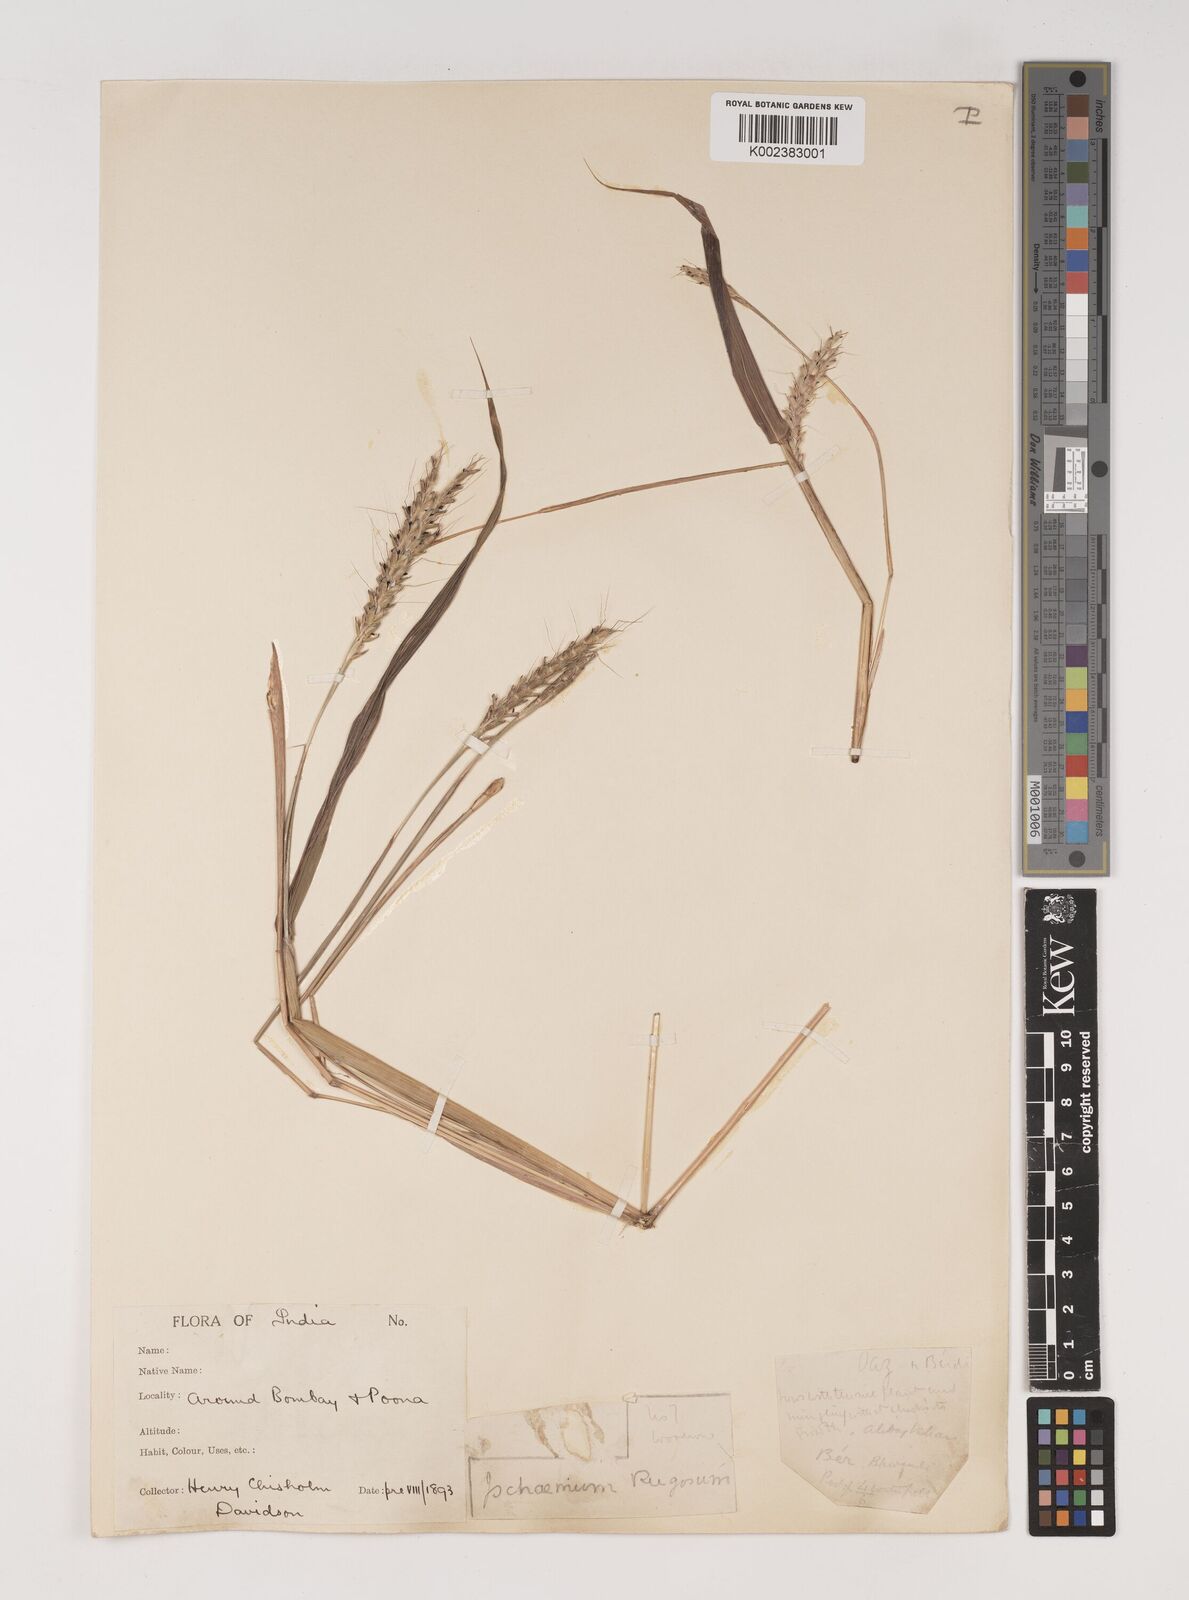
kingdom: Plantae
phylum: Tracheophyta
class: Liliopsida
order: Poales
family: Poaceae
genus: Ischaemum
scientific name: Ischaemum rugosum
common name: Saramatta grass
